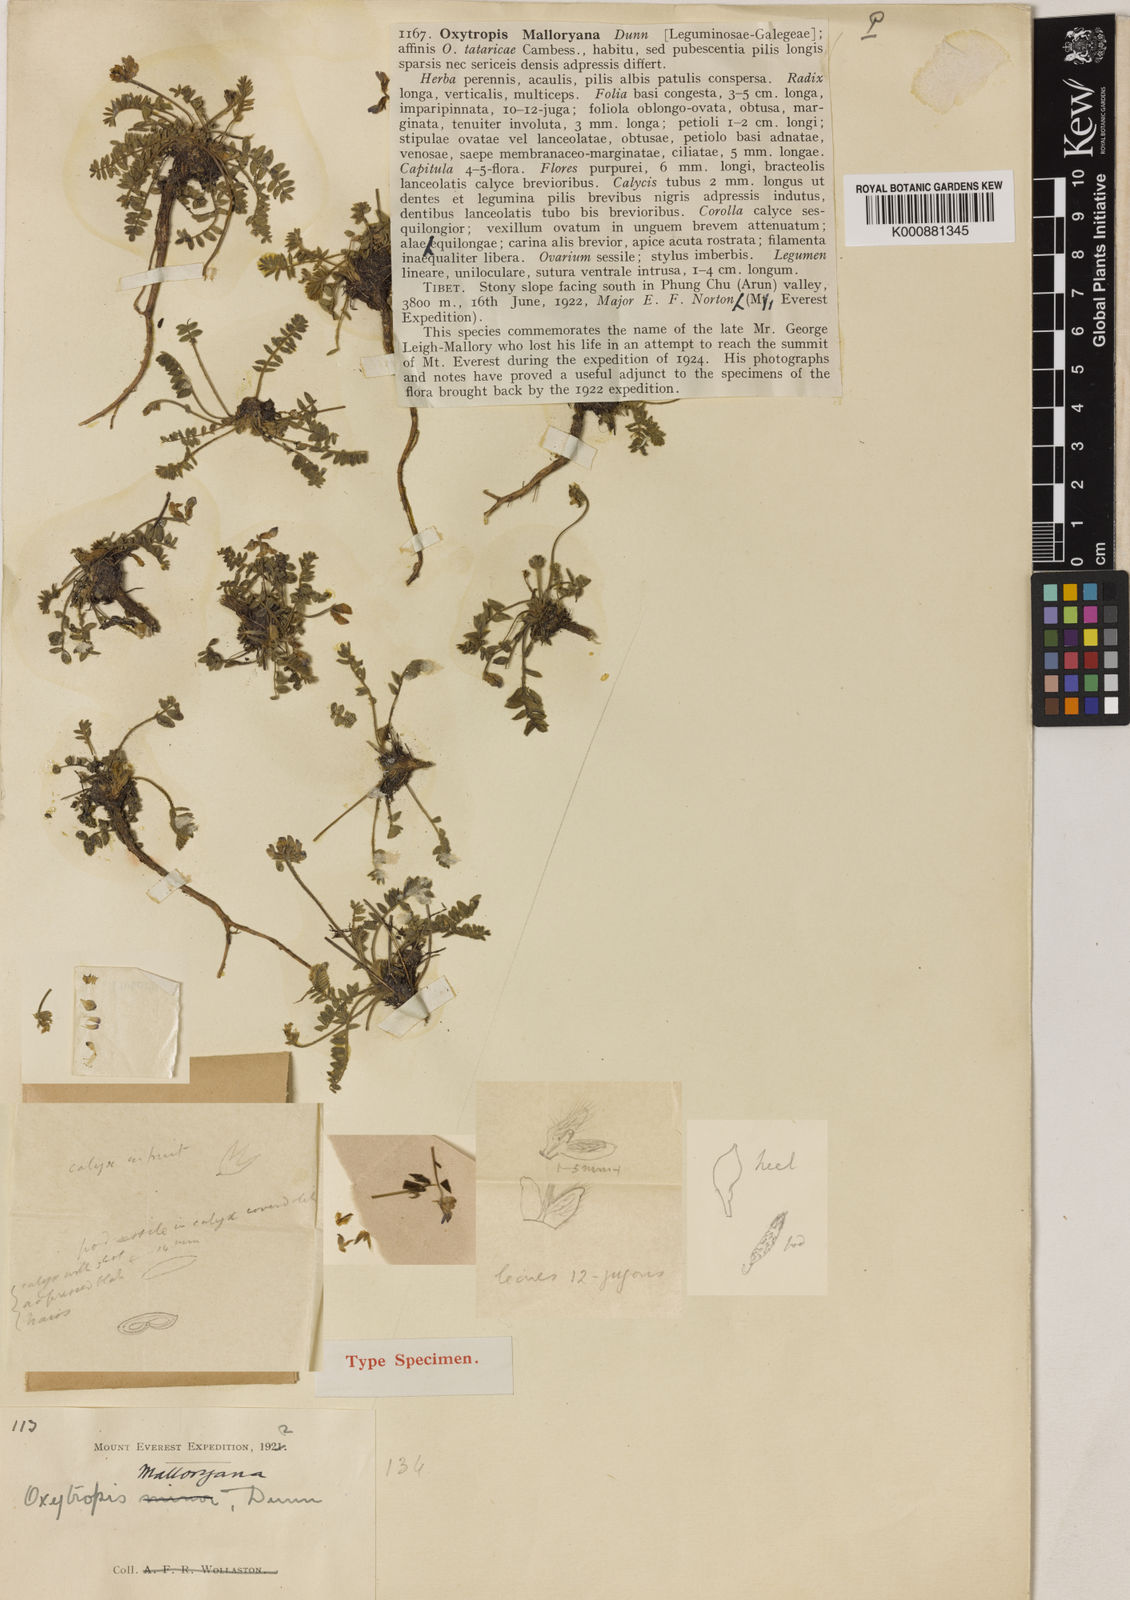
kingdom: Plantae
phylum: Tracheophyta
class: Magnoliopsida
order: Fabales
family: Fabaceae
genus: Oxytropis
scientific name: Oxytropis malloryana
